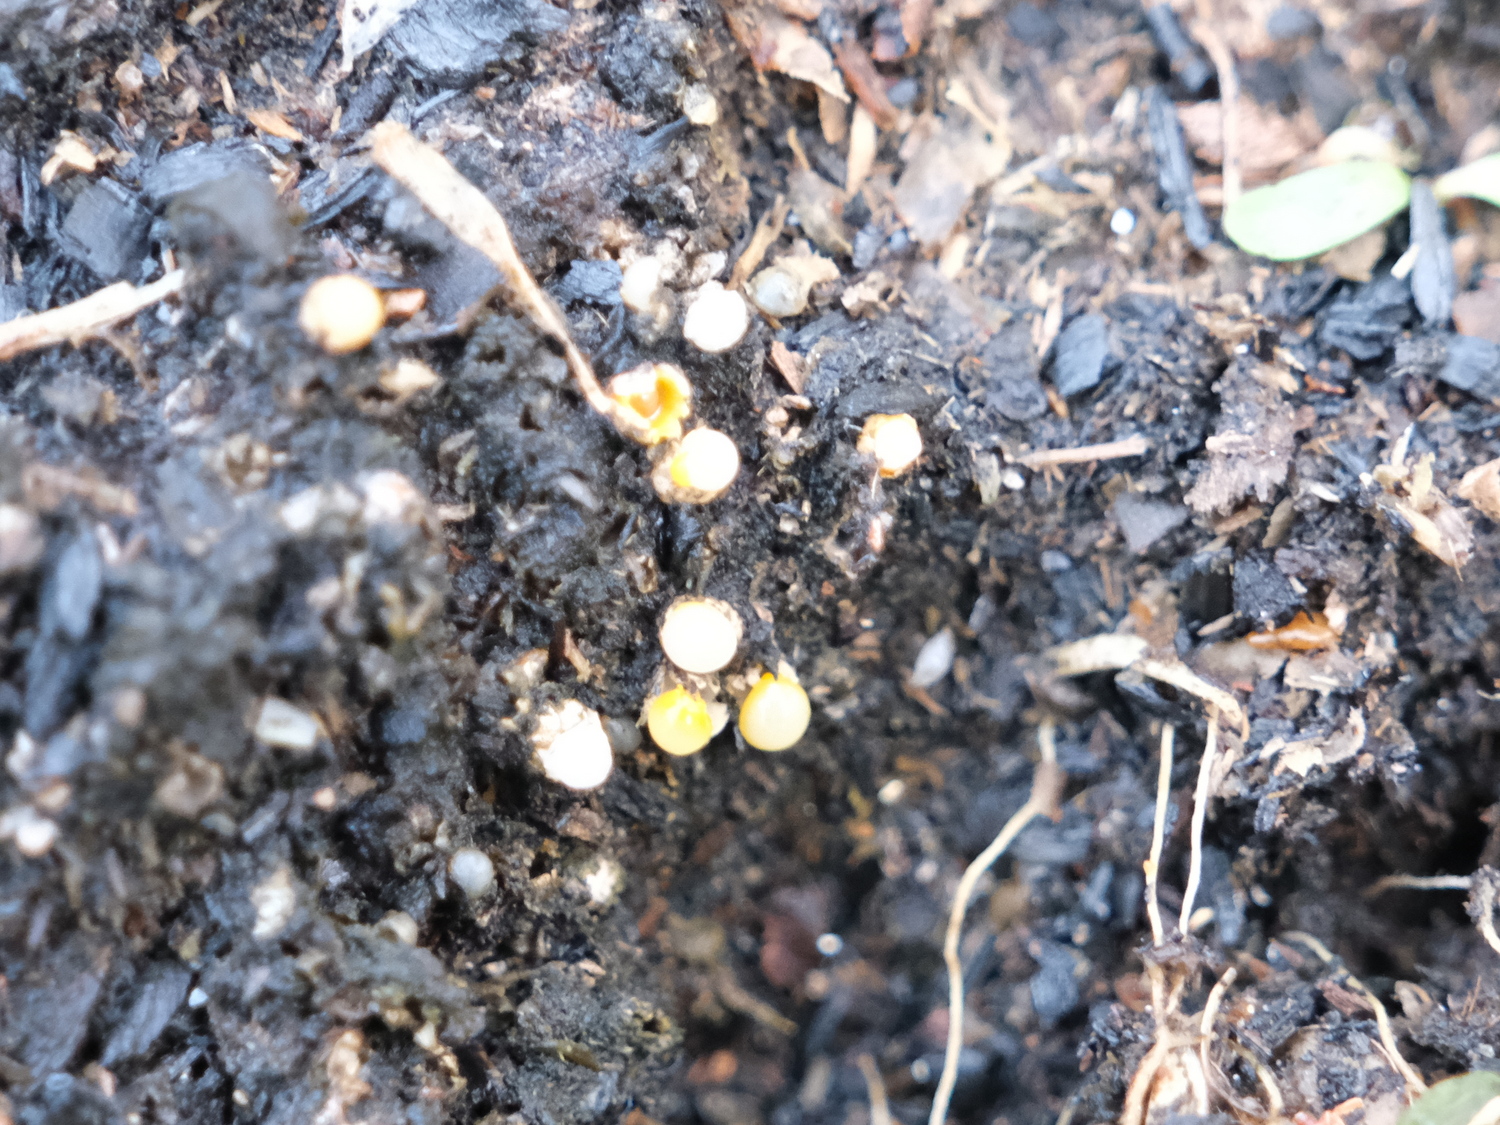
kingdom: Fungi
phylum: Basidiomycota
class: Agaricomycetes
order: Geastrales
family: Geastraceae
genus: Sphaerobolus
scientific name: Sphaerobolus stellatus
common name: bombekaster
